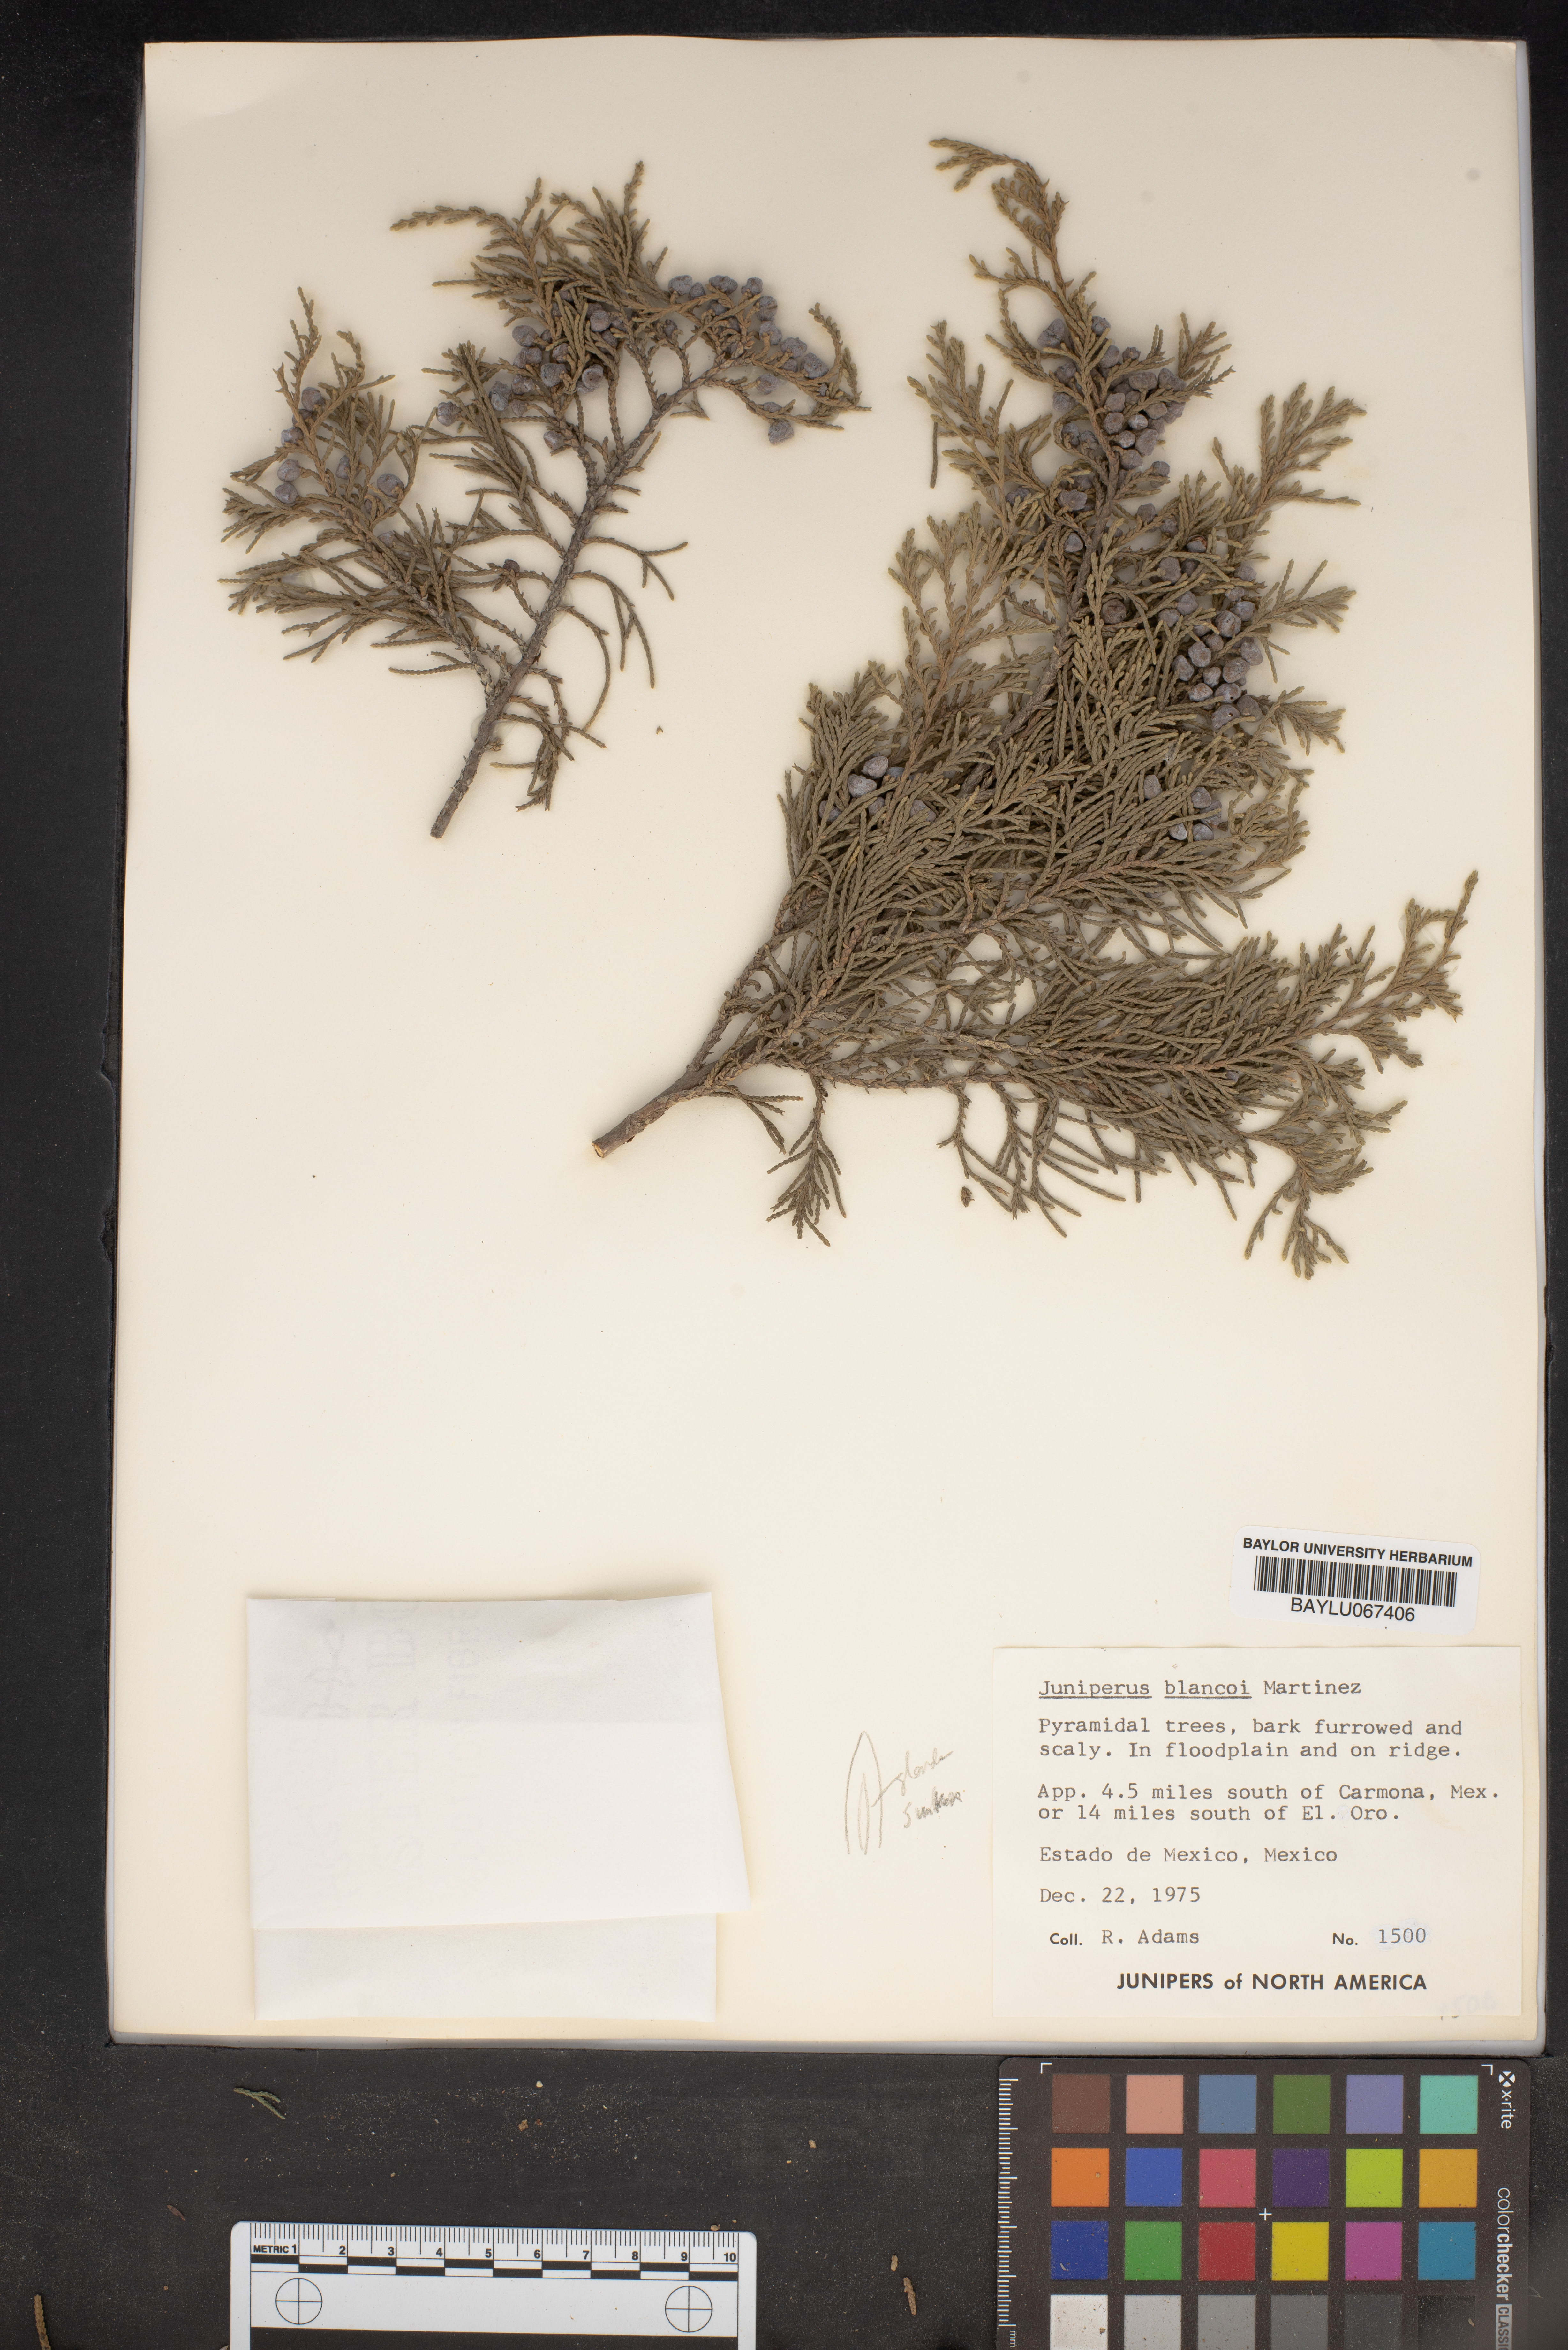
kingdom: Plantae
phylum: Tracheophyta
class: Pinopsida
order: Pinales
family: Cupressaceae
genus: Juniperus
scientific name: Juniperus blancoi
